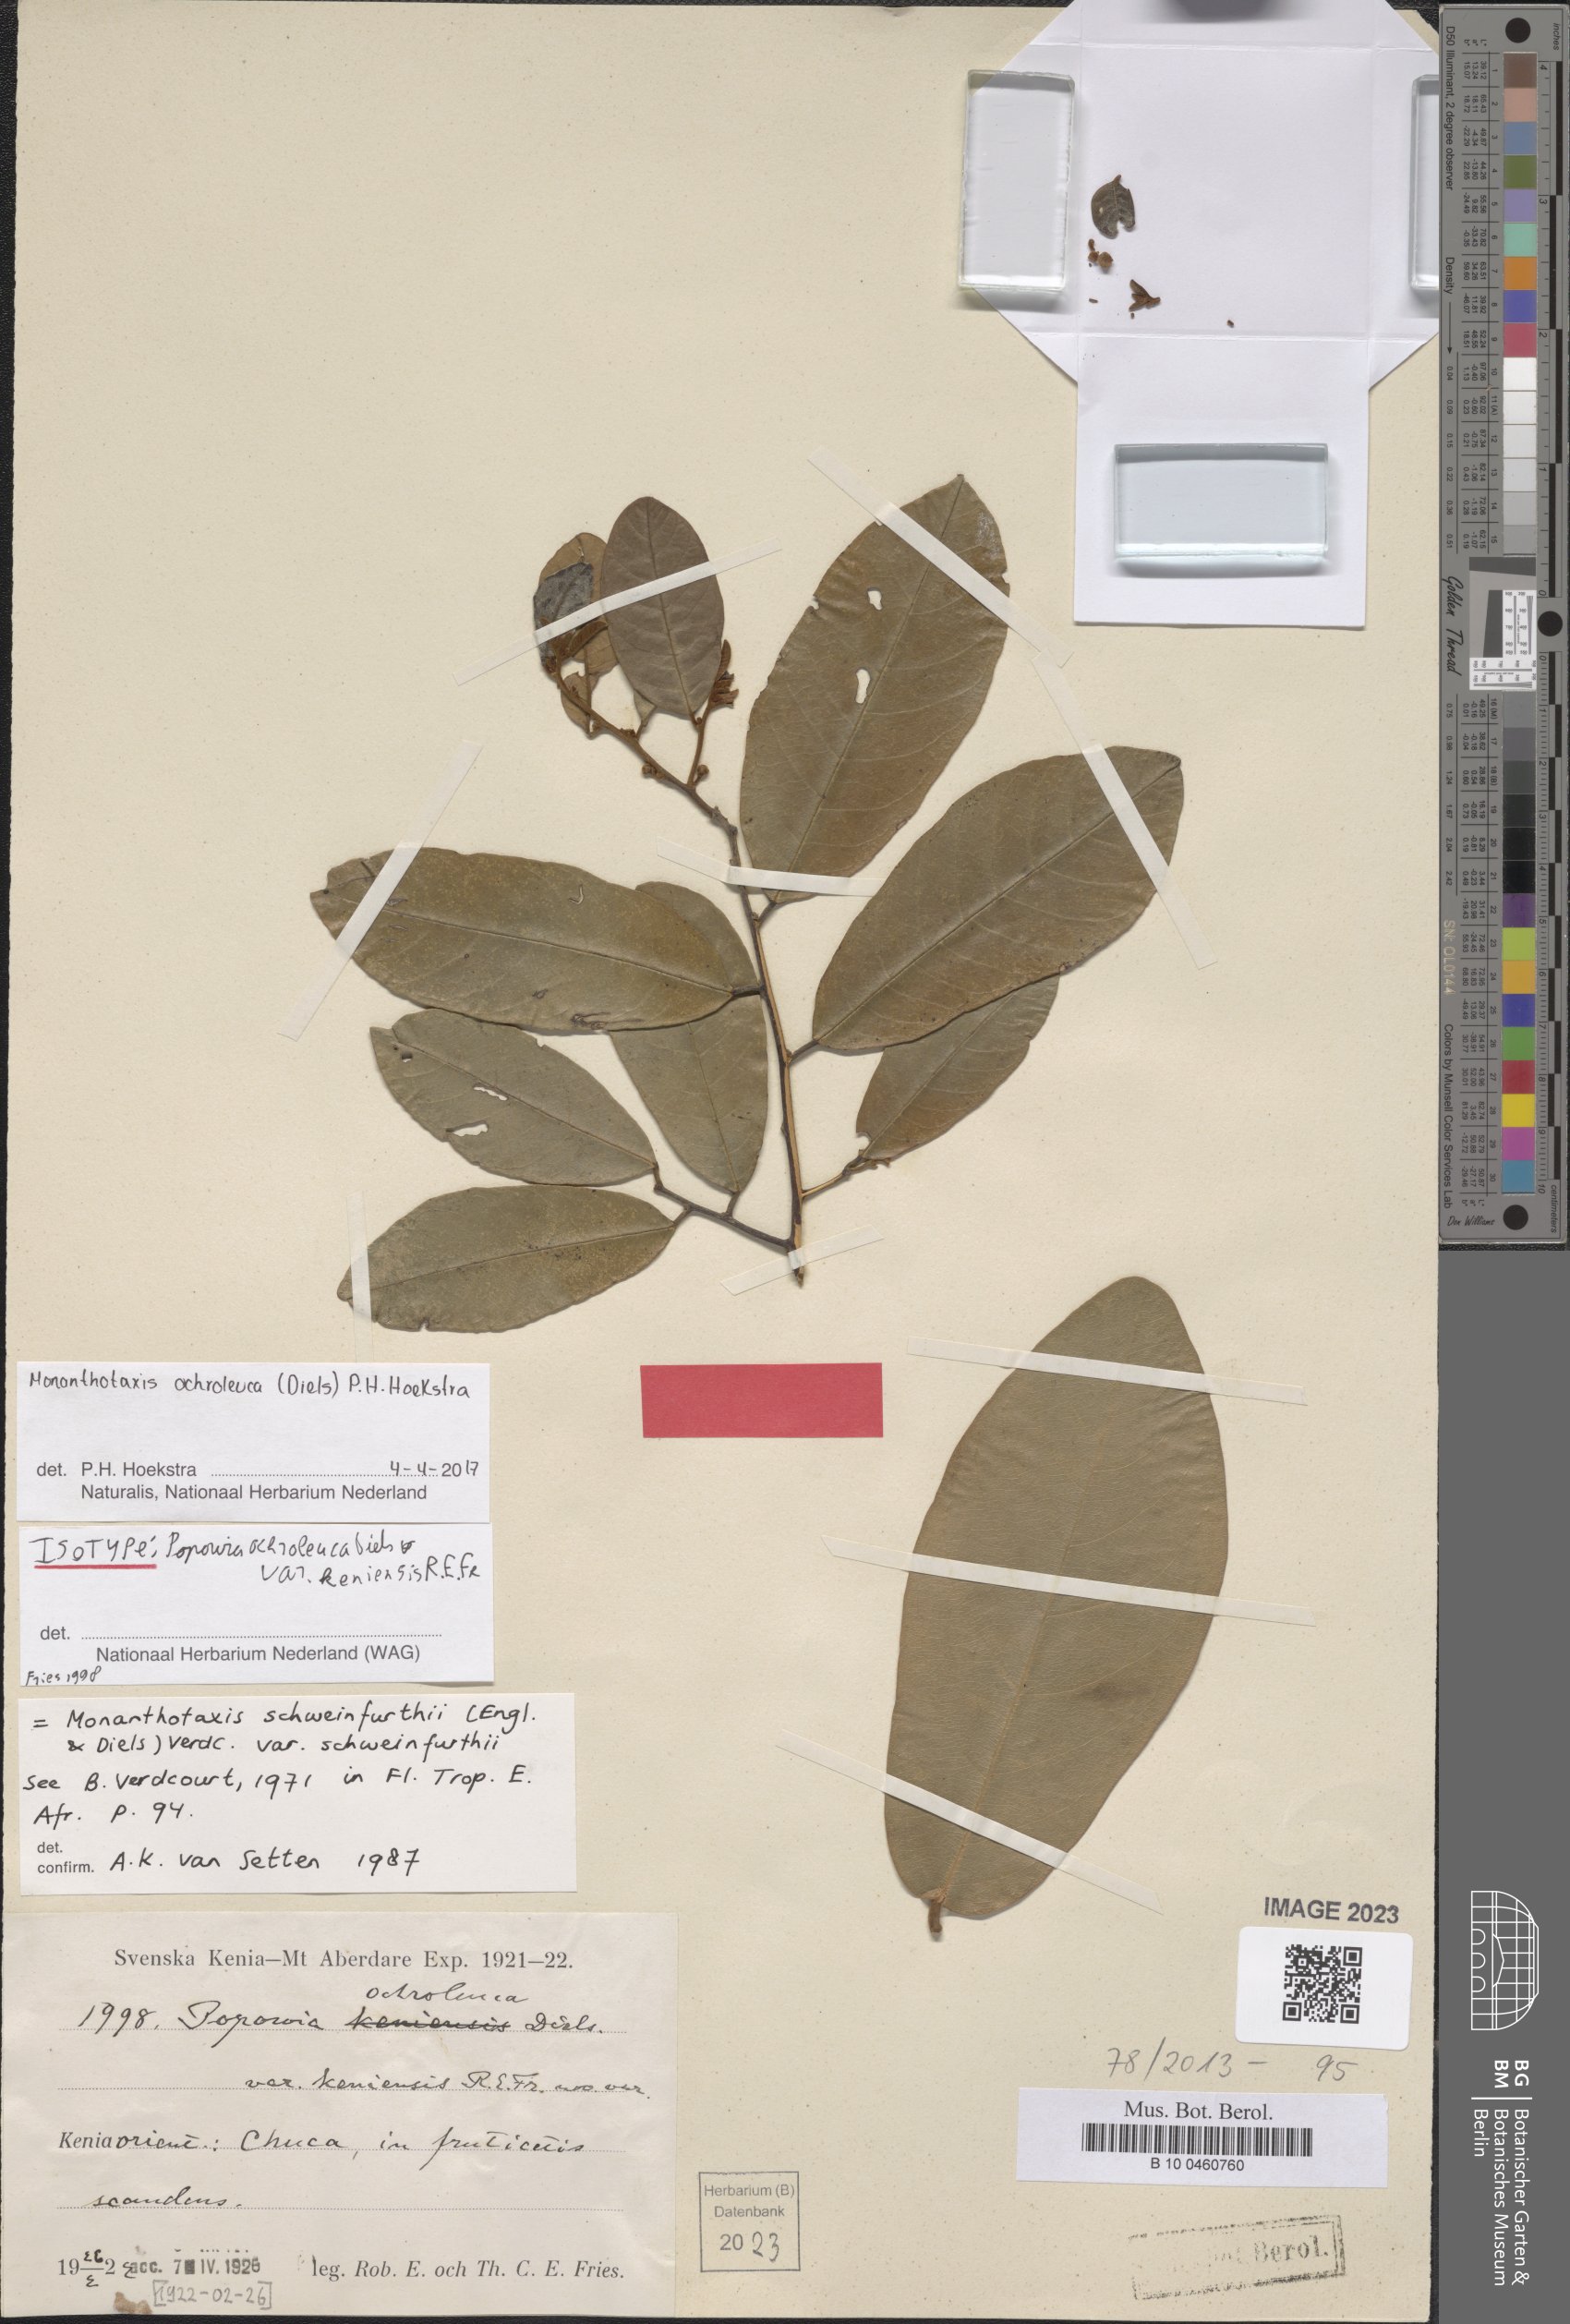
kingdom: Plantae
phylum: Tracheophyta
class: Magnoliopsida
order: Magnoliales
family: Annonaceae
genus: Monanthotaxis
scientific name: Monanthotaxis
